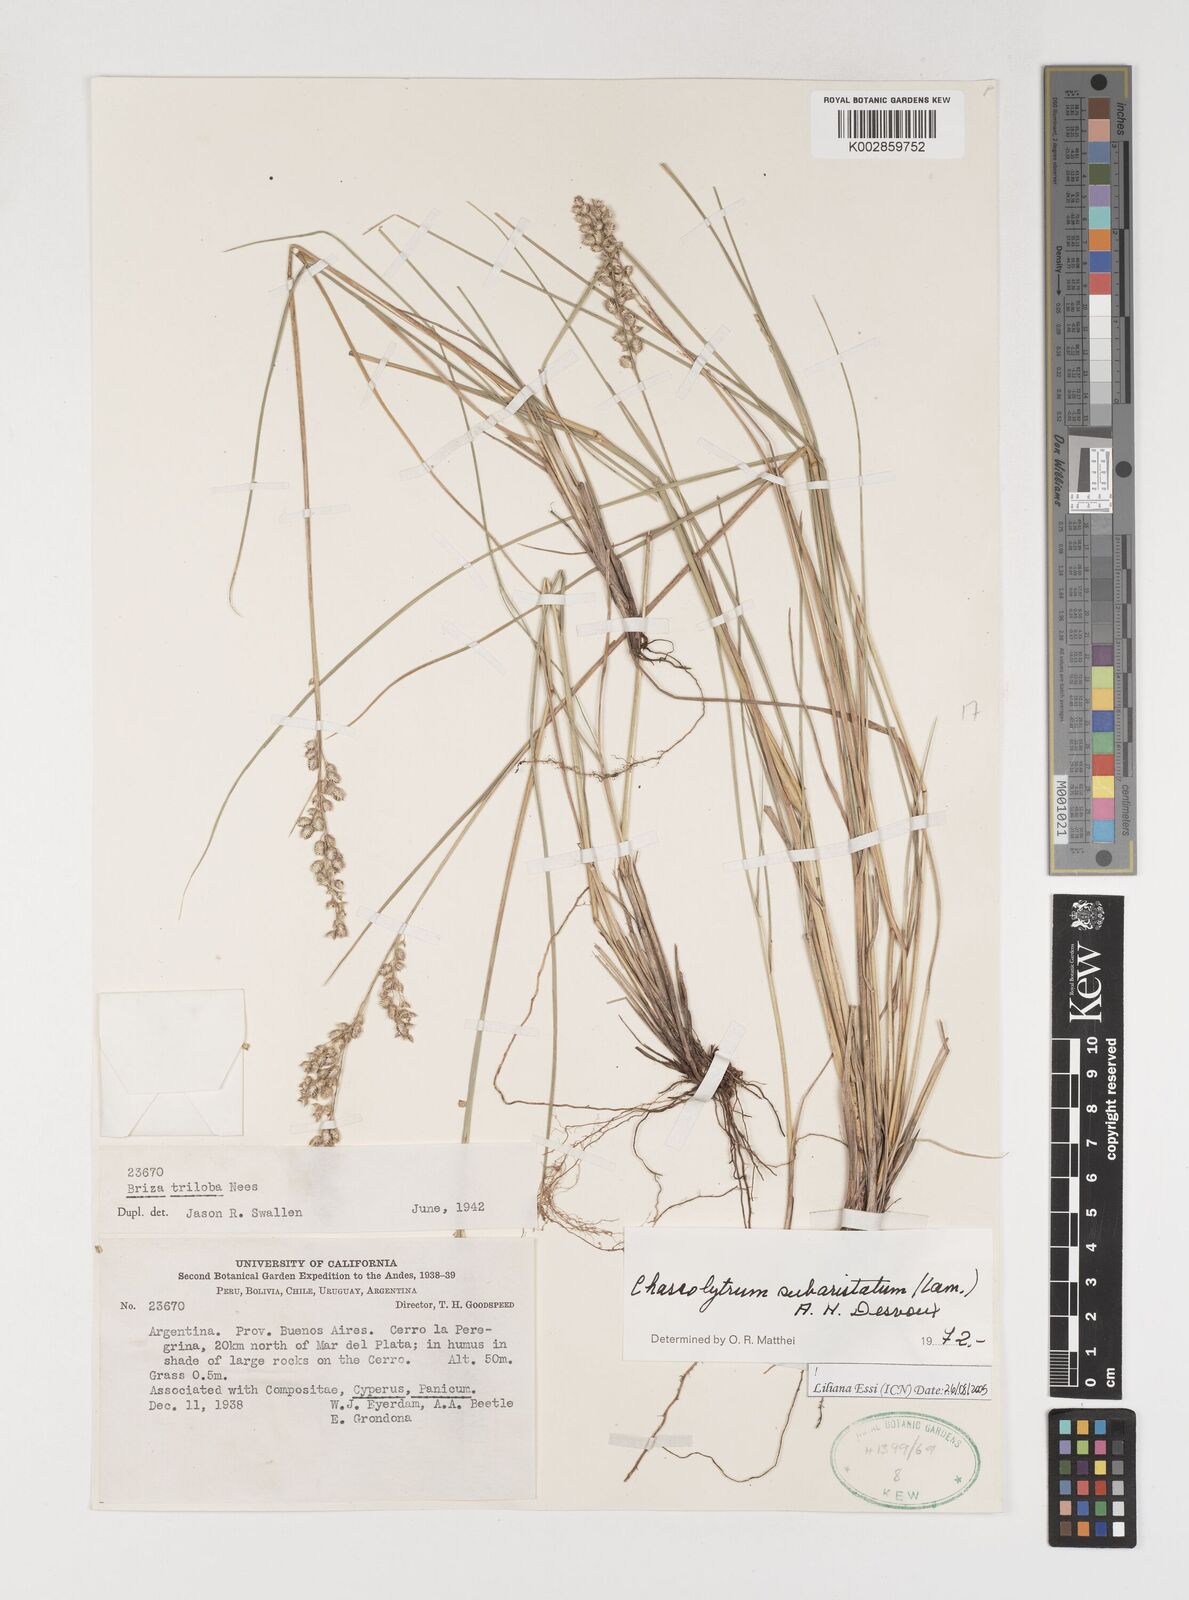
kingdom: Plantae
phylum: Tracheophyta
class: Liliopsida
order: Poales
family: Poaceae
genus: Chascolytrum
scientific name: Chascolytrum subaristatum
